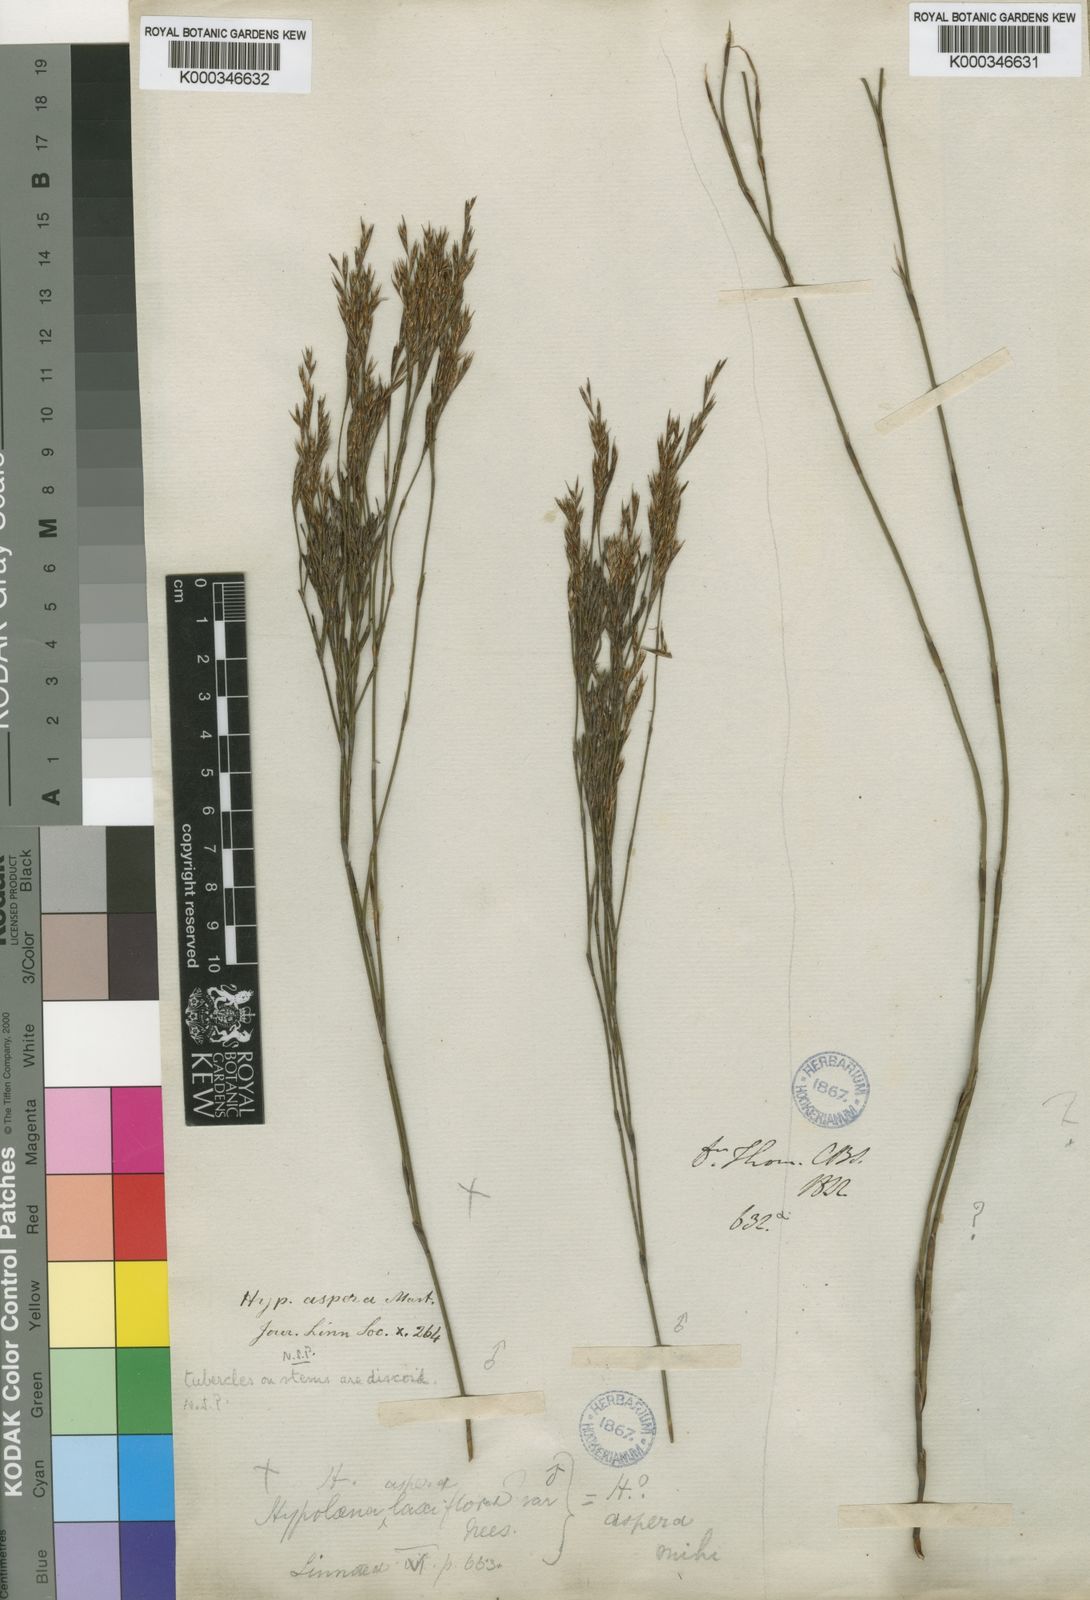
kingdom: Plantae
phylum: Tracheophyta
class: Liliopsida
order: Poales
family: Restionaceae
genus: Restio
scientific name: Restio asperus
